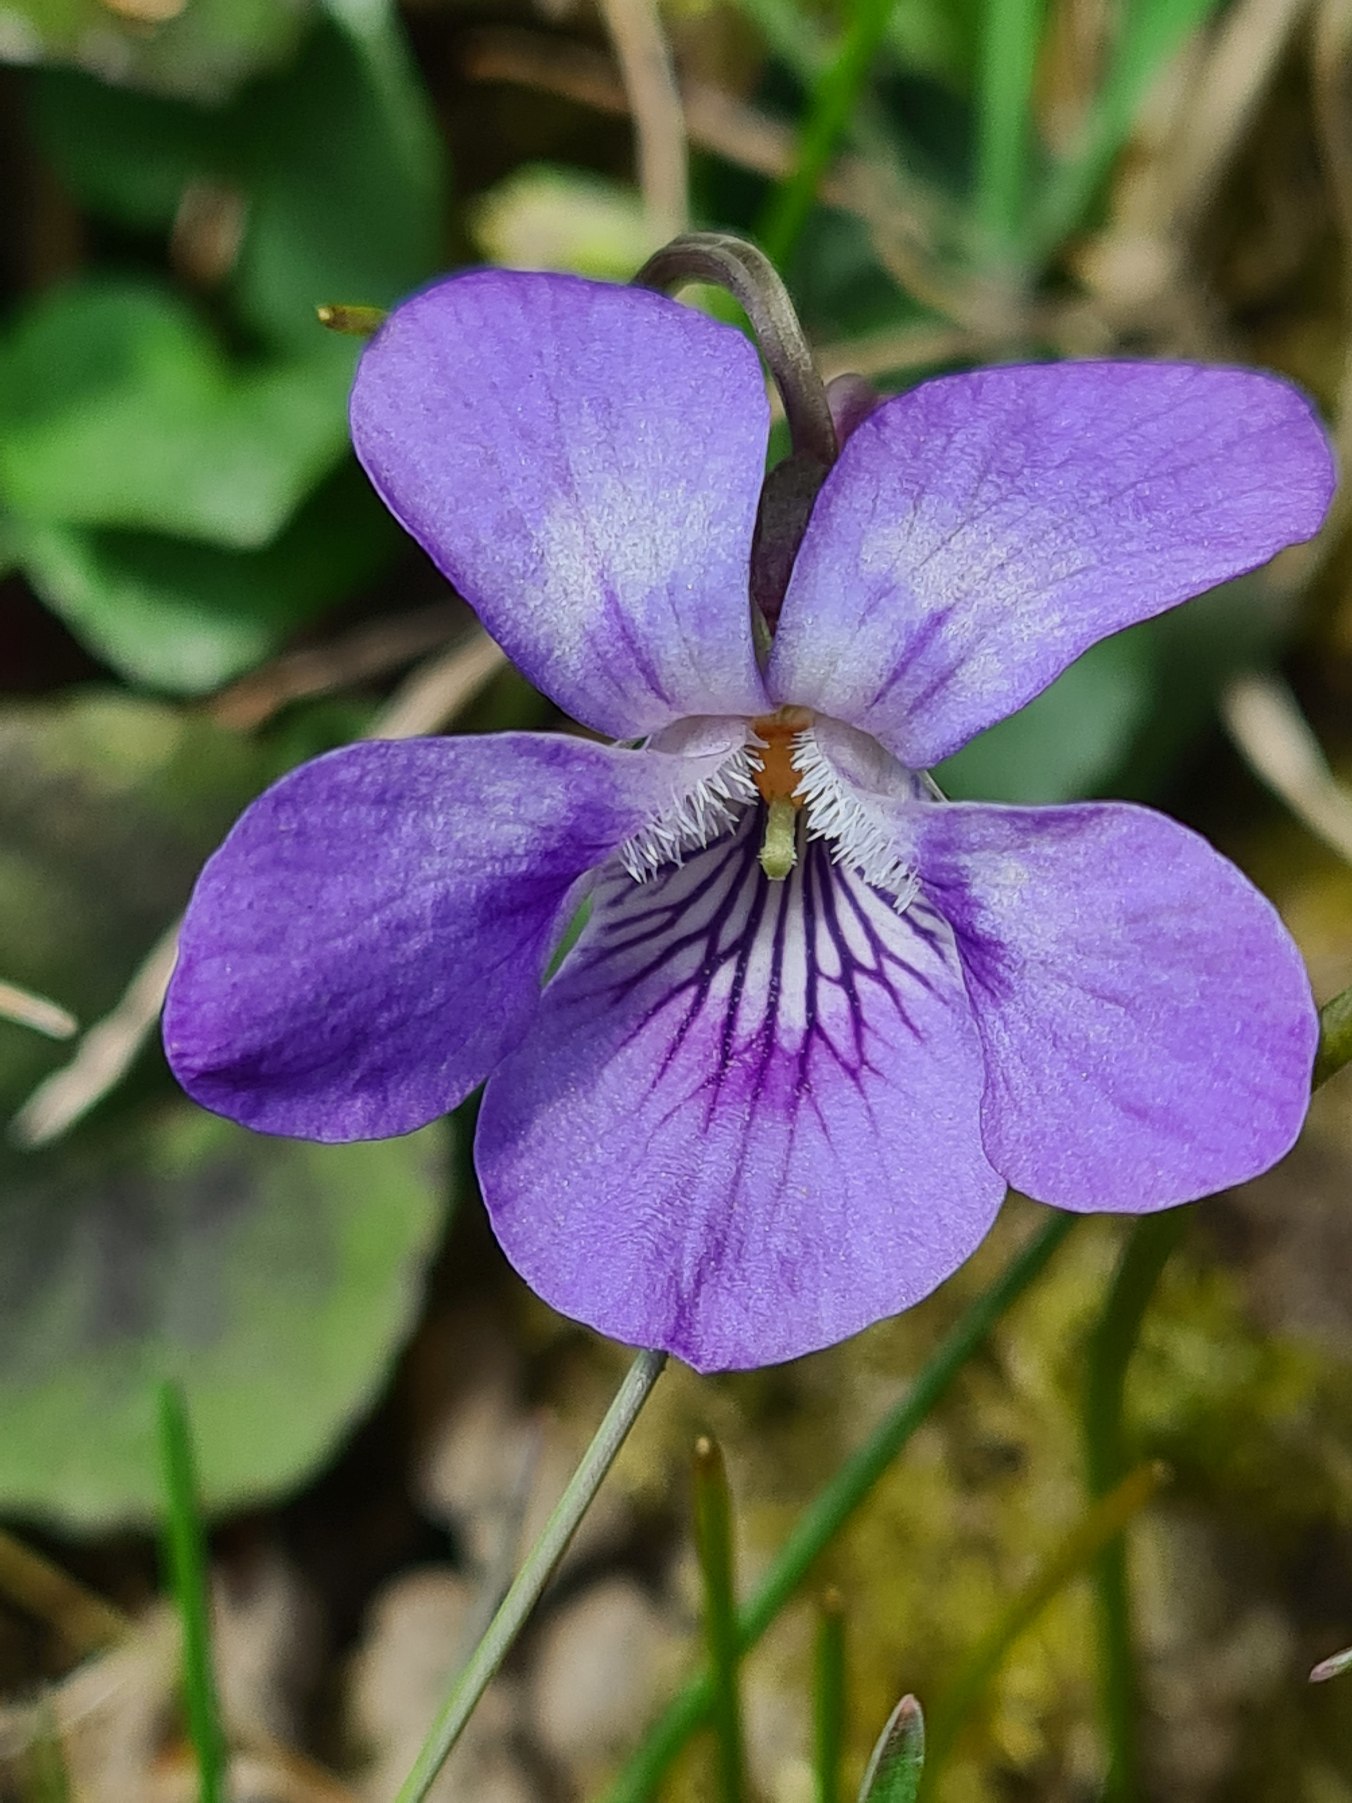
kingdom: Plantae
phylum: Tracheophyta
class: Magnoliopsida
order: Malpighiales
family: Violaceae
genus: Viola
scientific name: Viola riviniana
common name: Krat-viol
